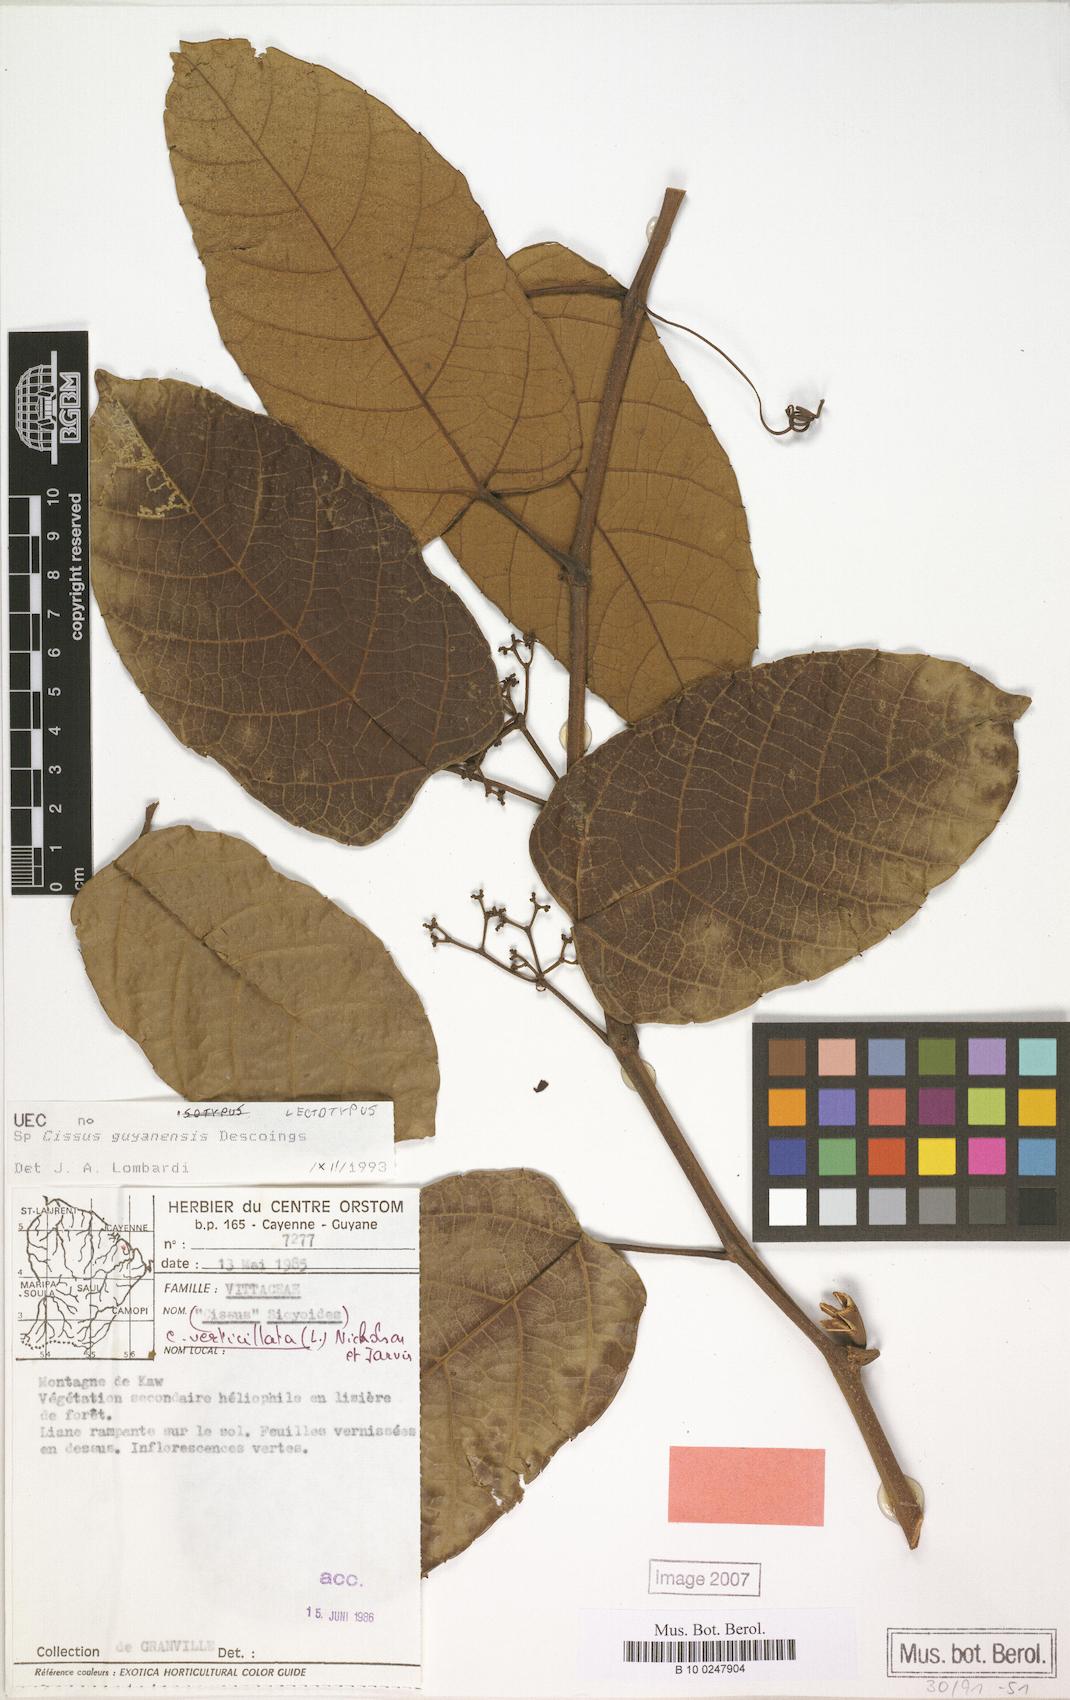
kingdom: Plantae
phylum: Tracheophyta
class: Magnoliopsida
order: Vitales
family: Vitaceae
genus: Cissus
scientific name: Cissus descoingsii
